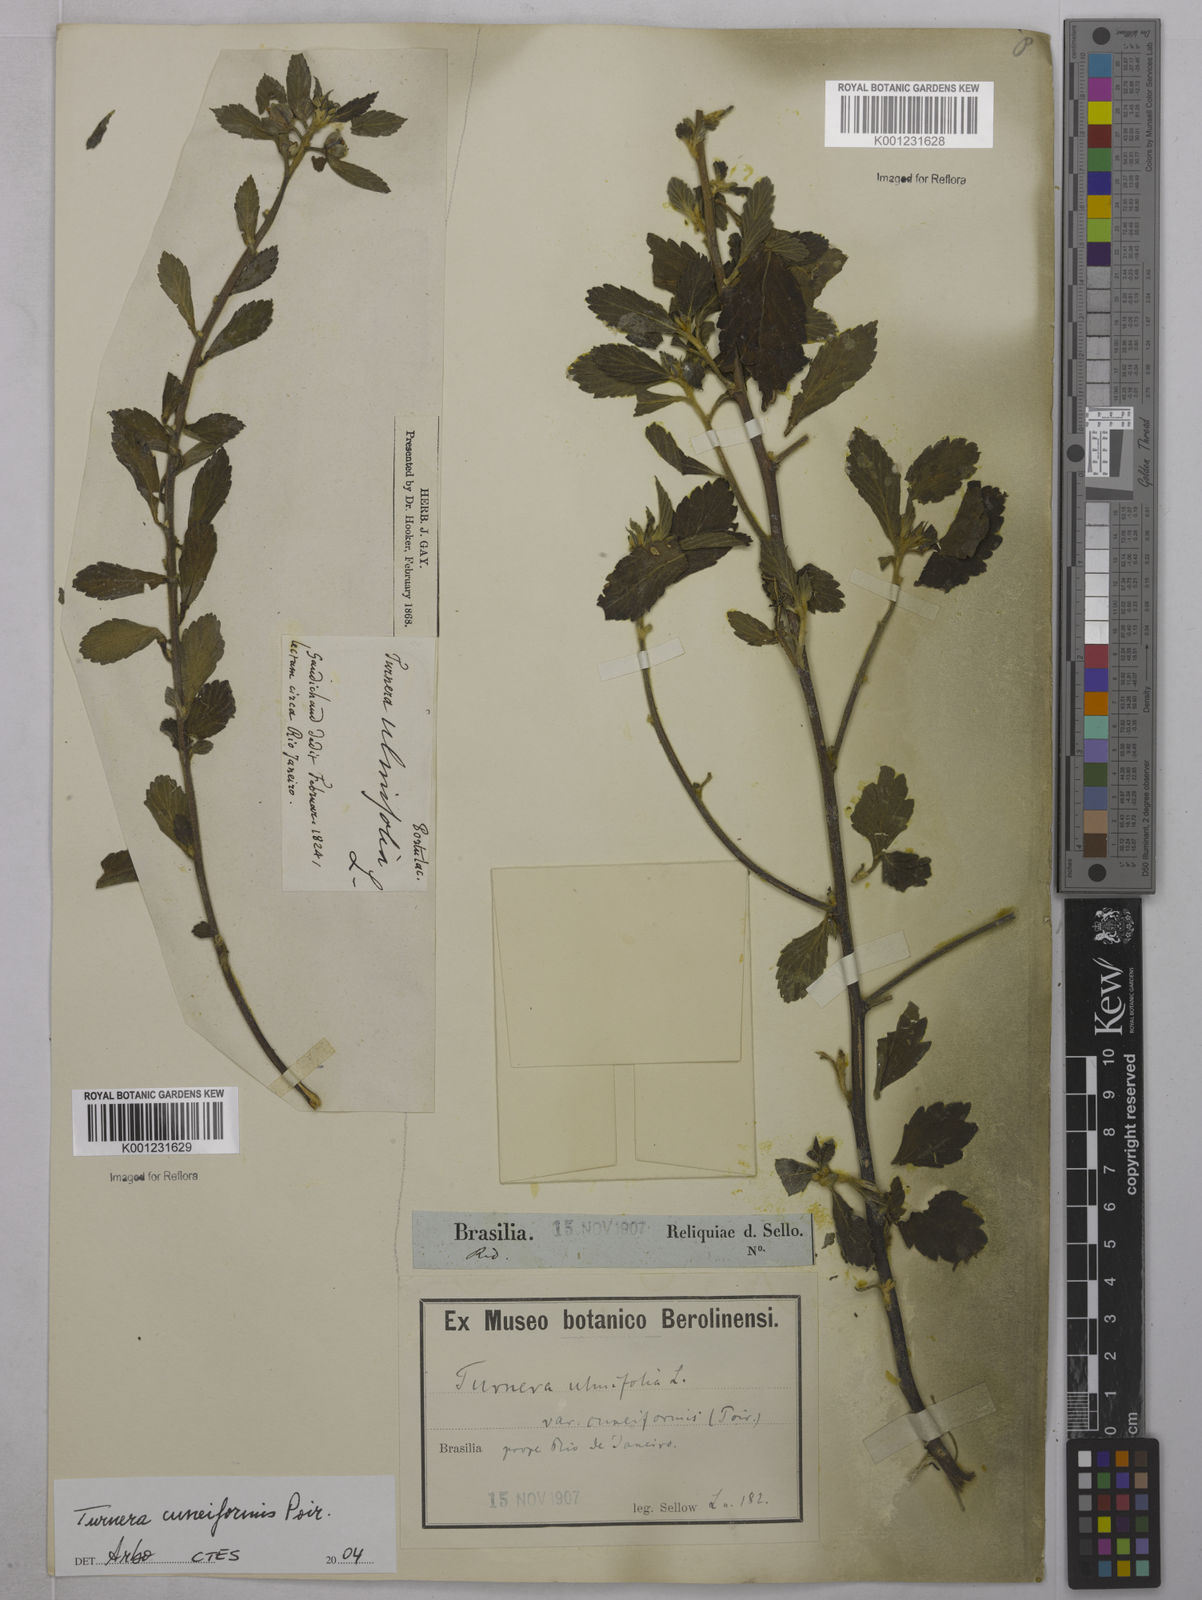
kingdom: Plantae
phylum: Tracheophyta
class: Magnoliopsida
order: Malpighiales
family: Turneraceae
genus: Turnera
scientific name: Turnera cuneiformis
